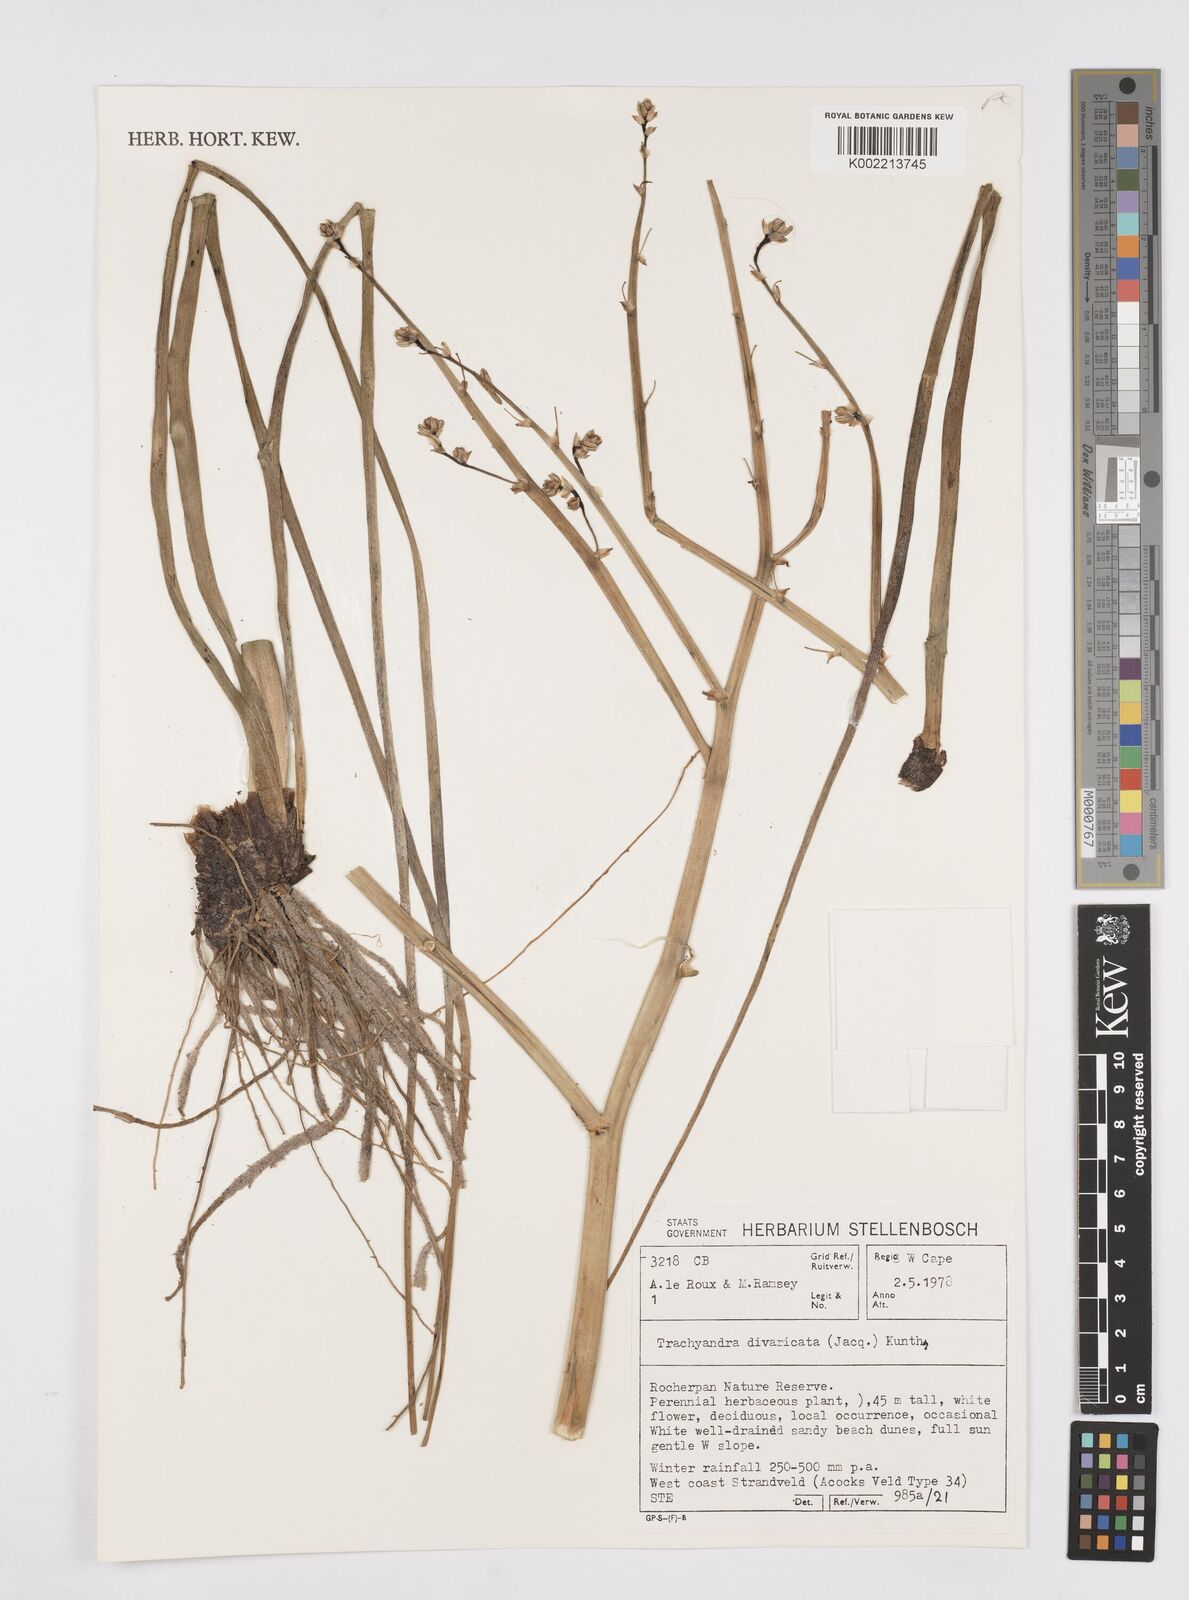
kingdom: Plantae
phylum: Tracheophyta
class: Liliopsida
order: Asparagales
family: Asphodelaceae
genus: Trachyandra
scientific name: Trachyandra divaricata
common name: Dune onionweed
